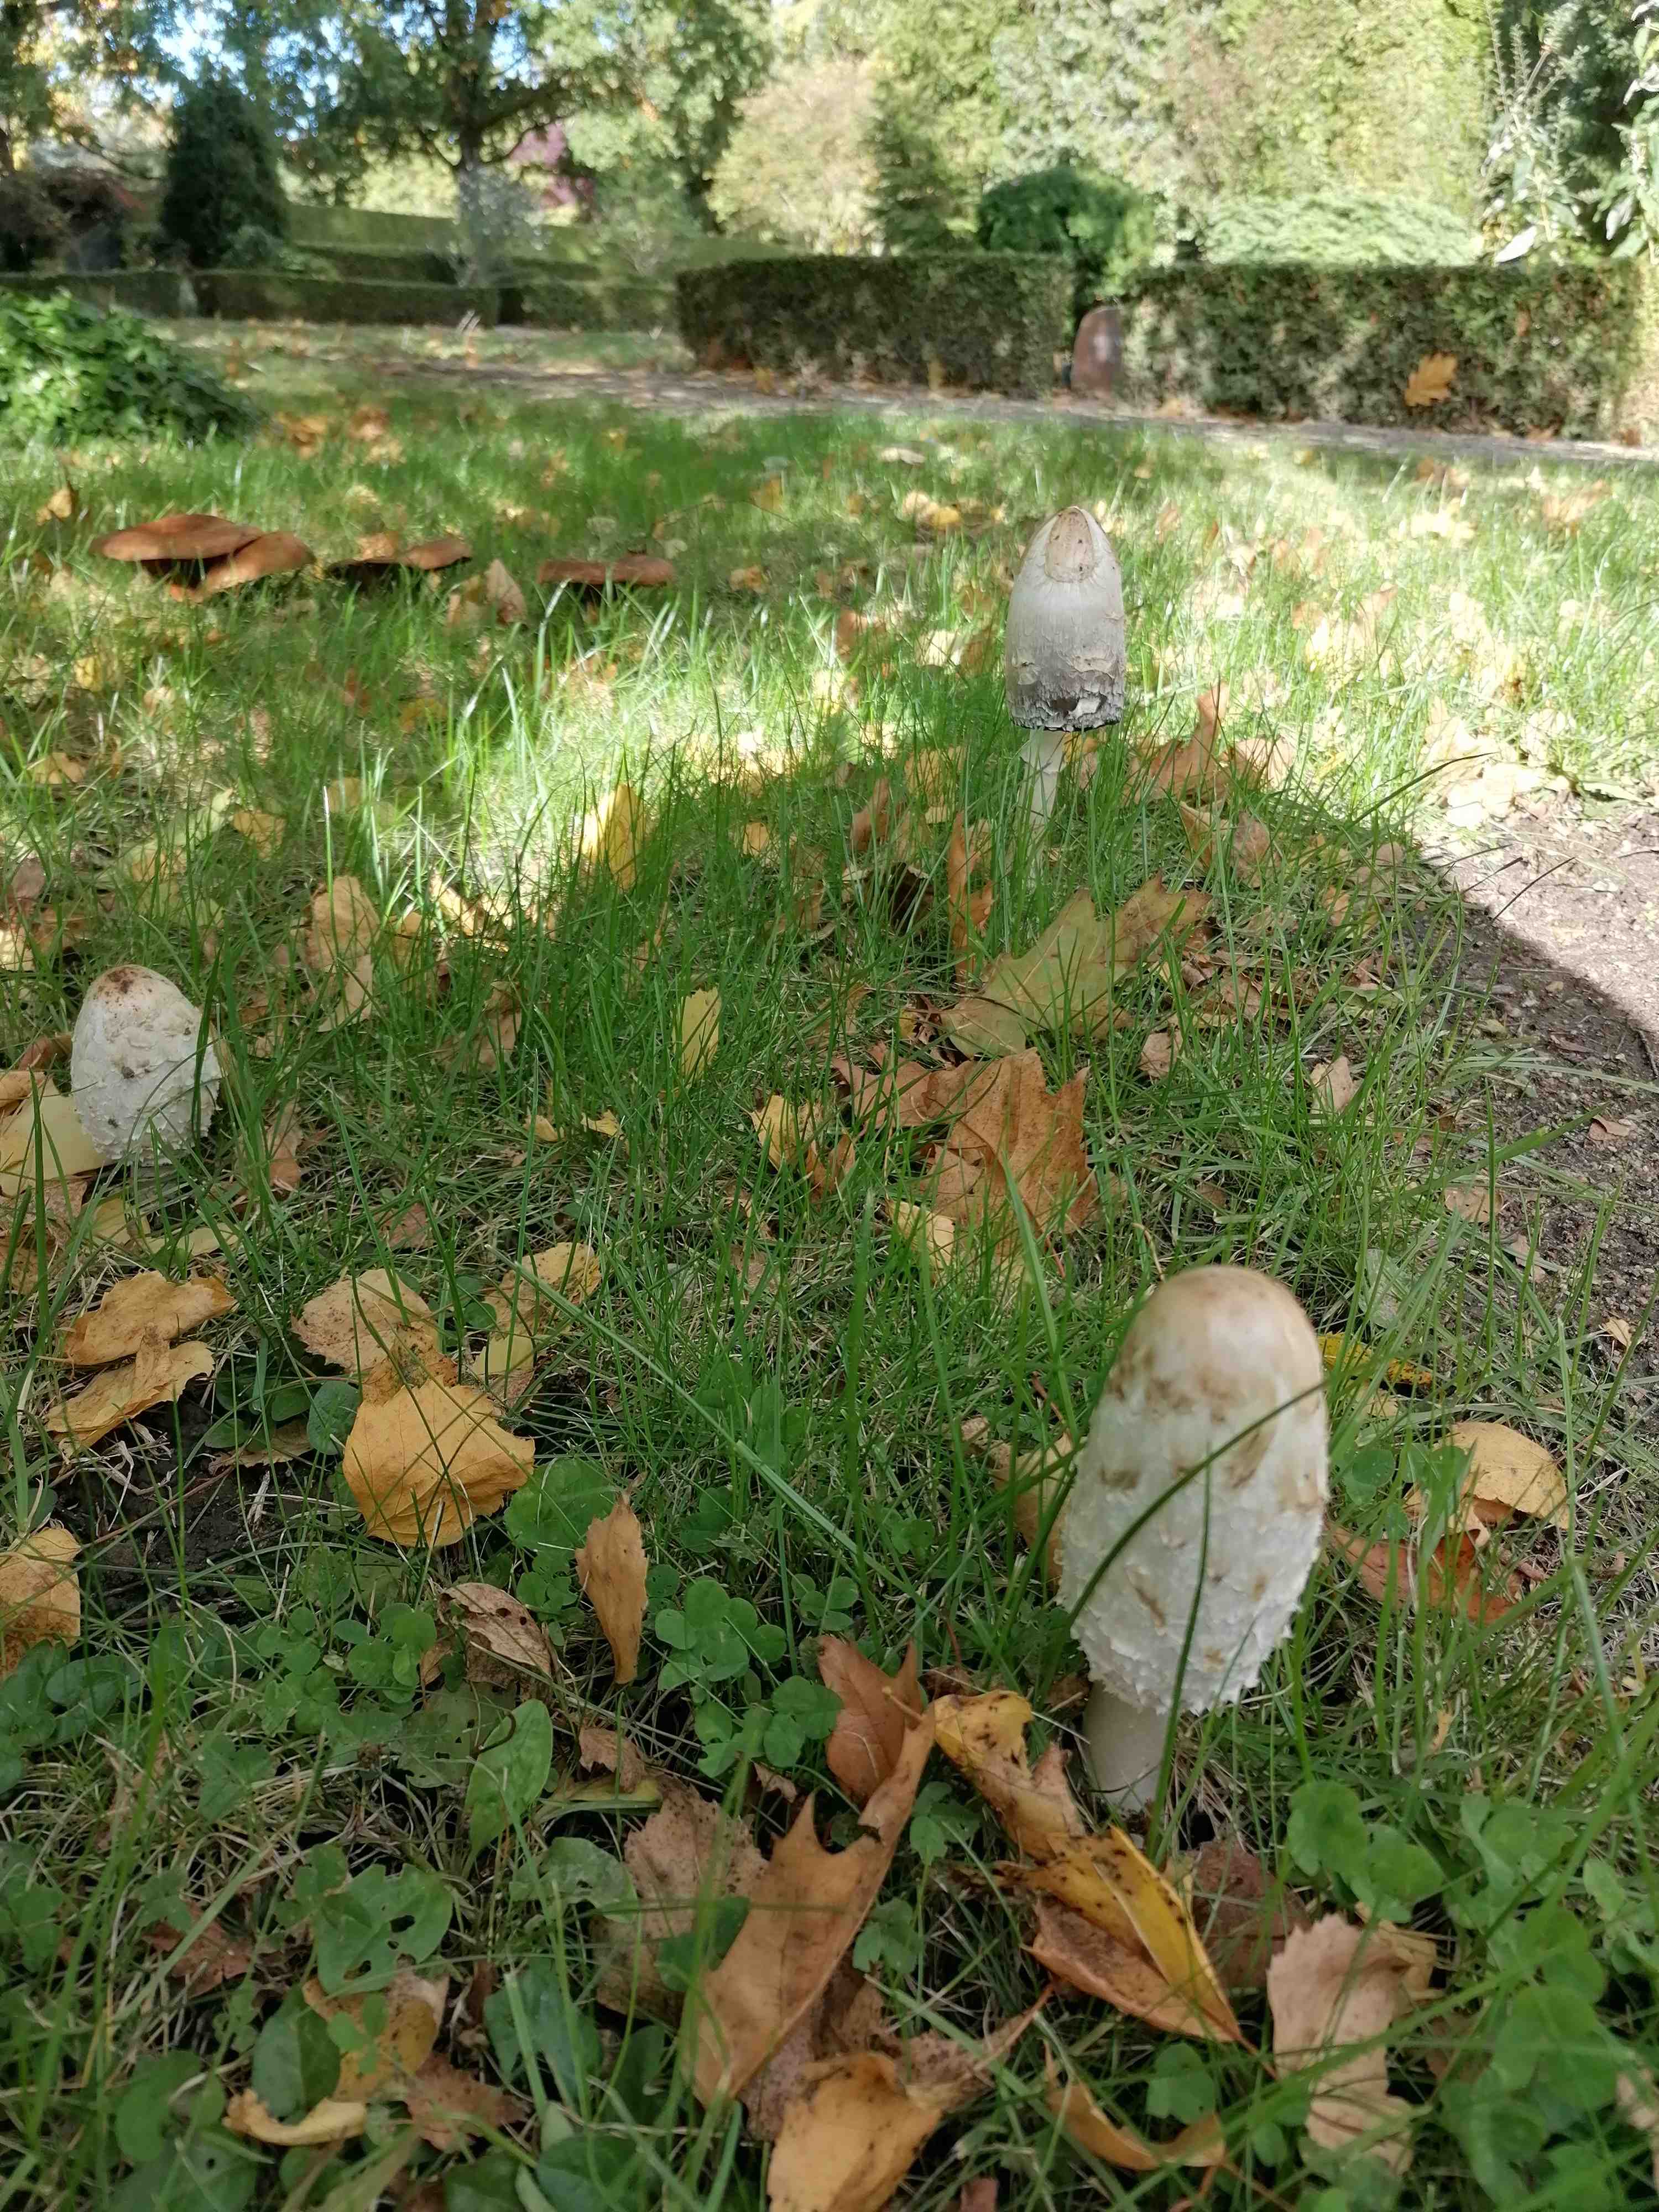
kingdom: Fungi
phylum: Basidiomycota
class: Agaricomycetes
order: Agaricales
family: Agaricaceae
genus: Coprinus
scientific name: Coprinus comatus
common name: stor parykhat
